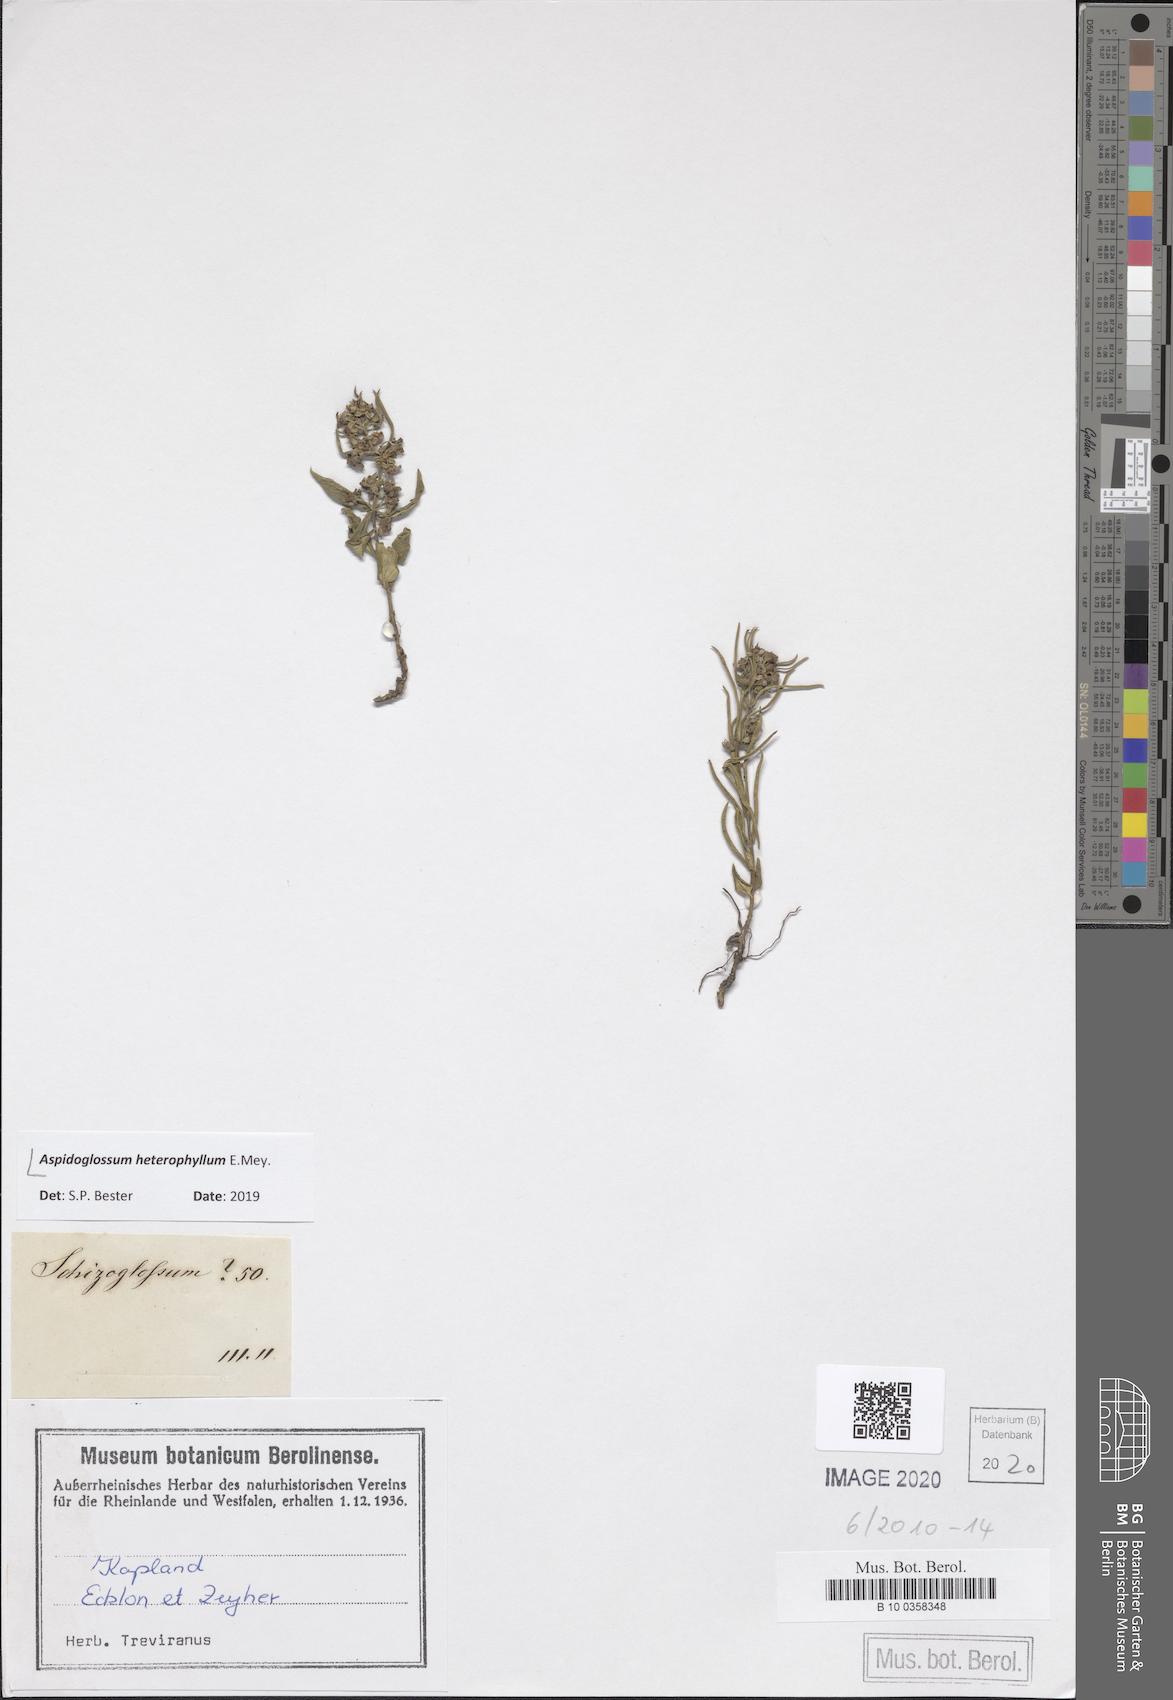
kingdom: Plantae
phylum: Tracheophyta
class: Magnoliopsida
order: Gentianales
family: Apocynaceae
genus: Aspidoglossum
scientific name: Aspidoglossum heterophyllum
